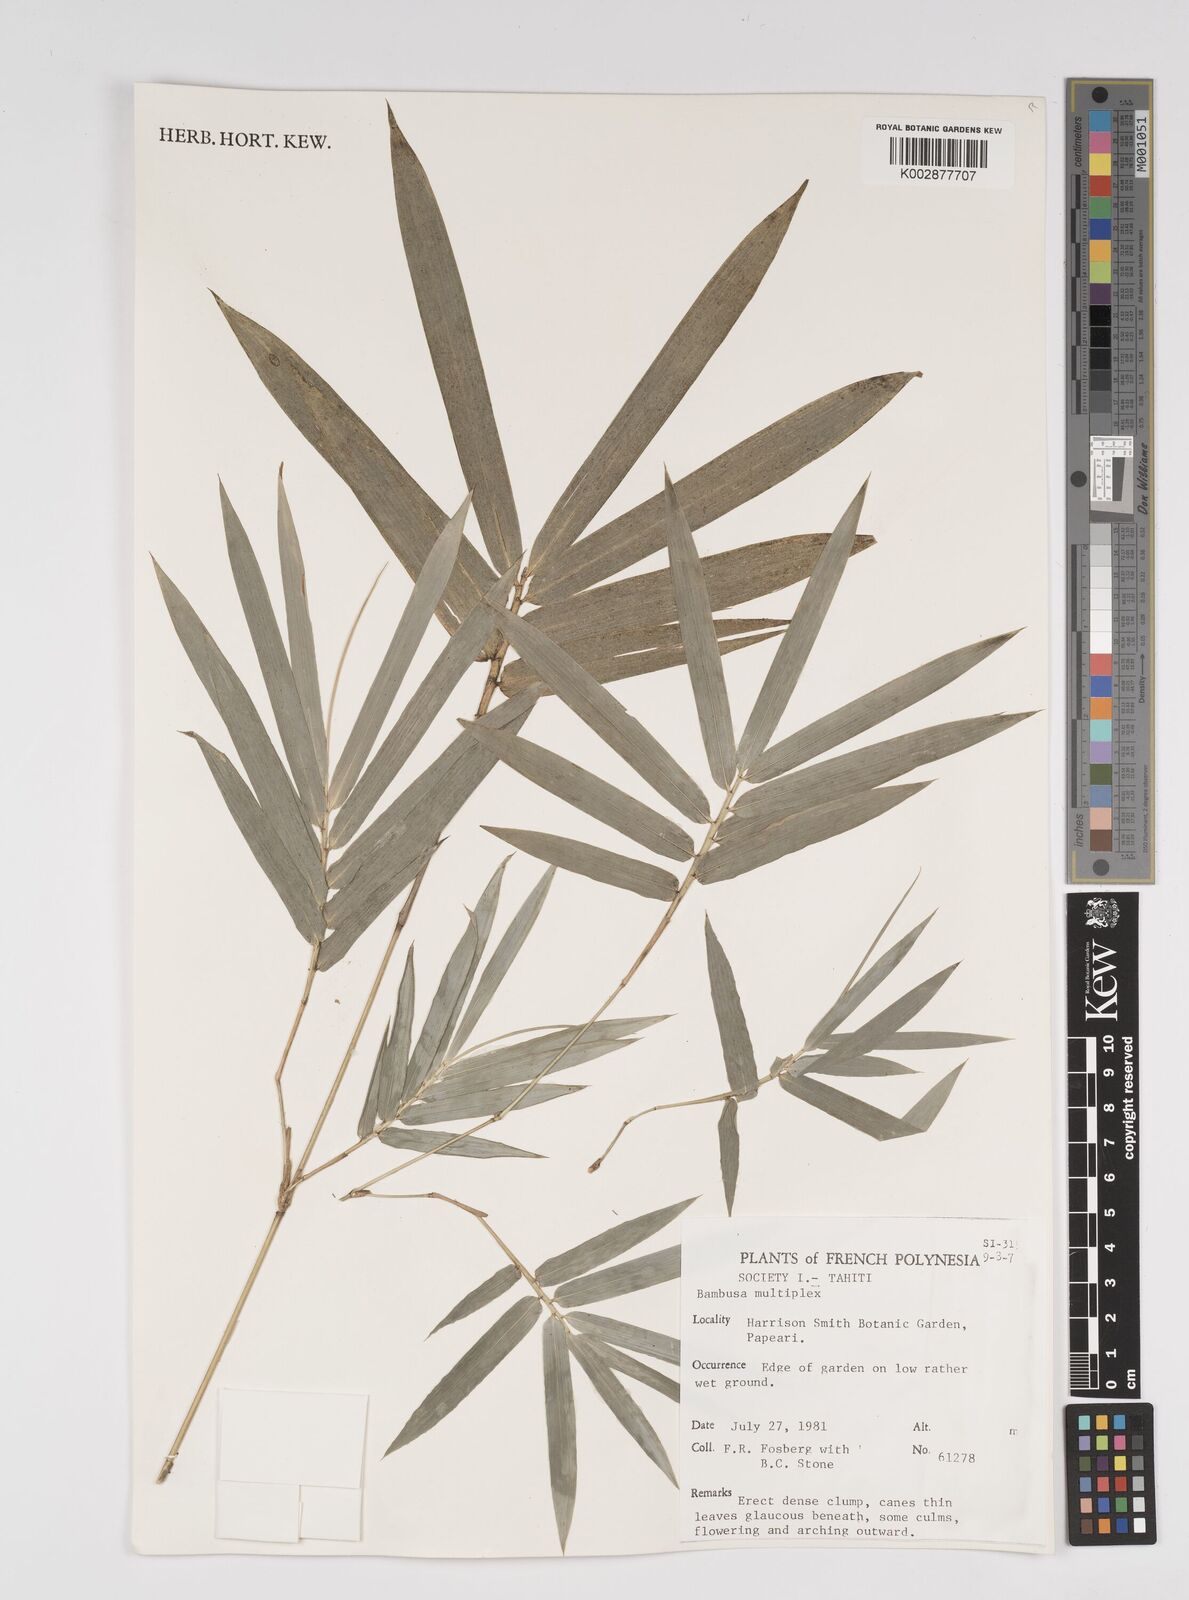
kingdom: Plantae
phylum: Tracheophyta
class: Liliopsida
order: Poales
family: Poaceae
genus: Bambusa
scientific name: Bambusa multiplex
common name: Hedge bamboo
